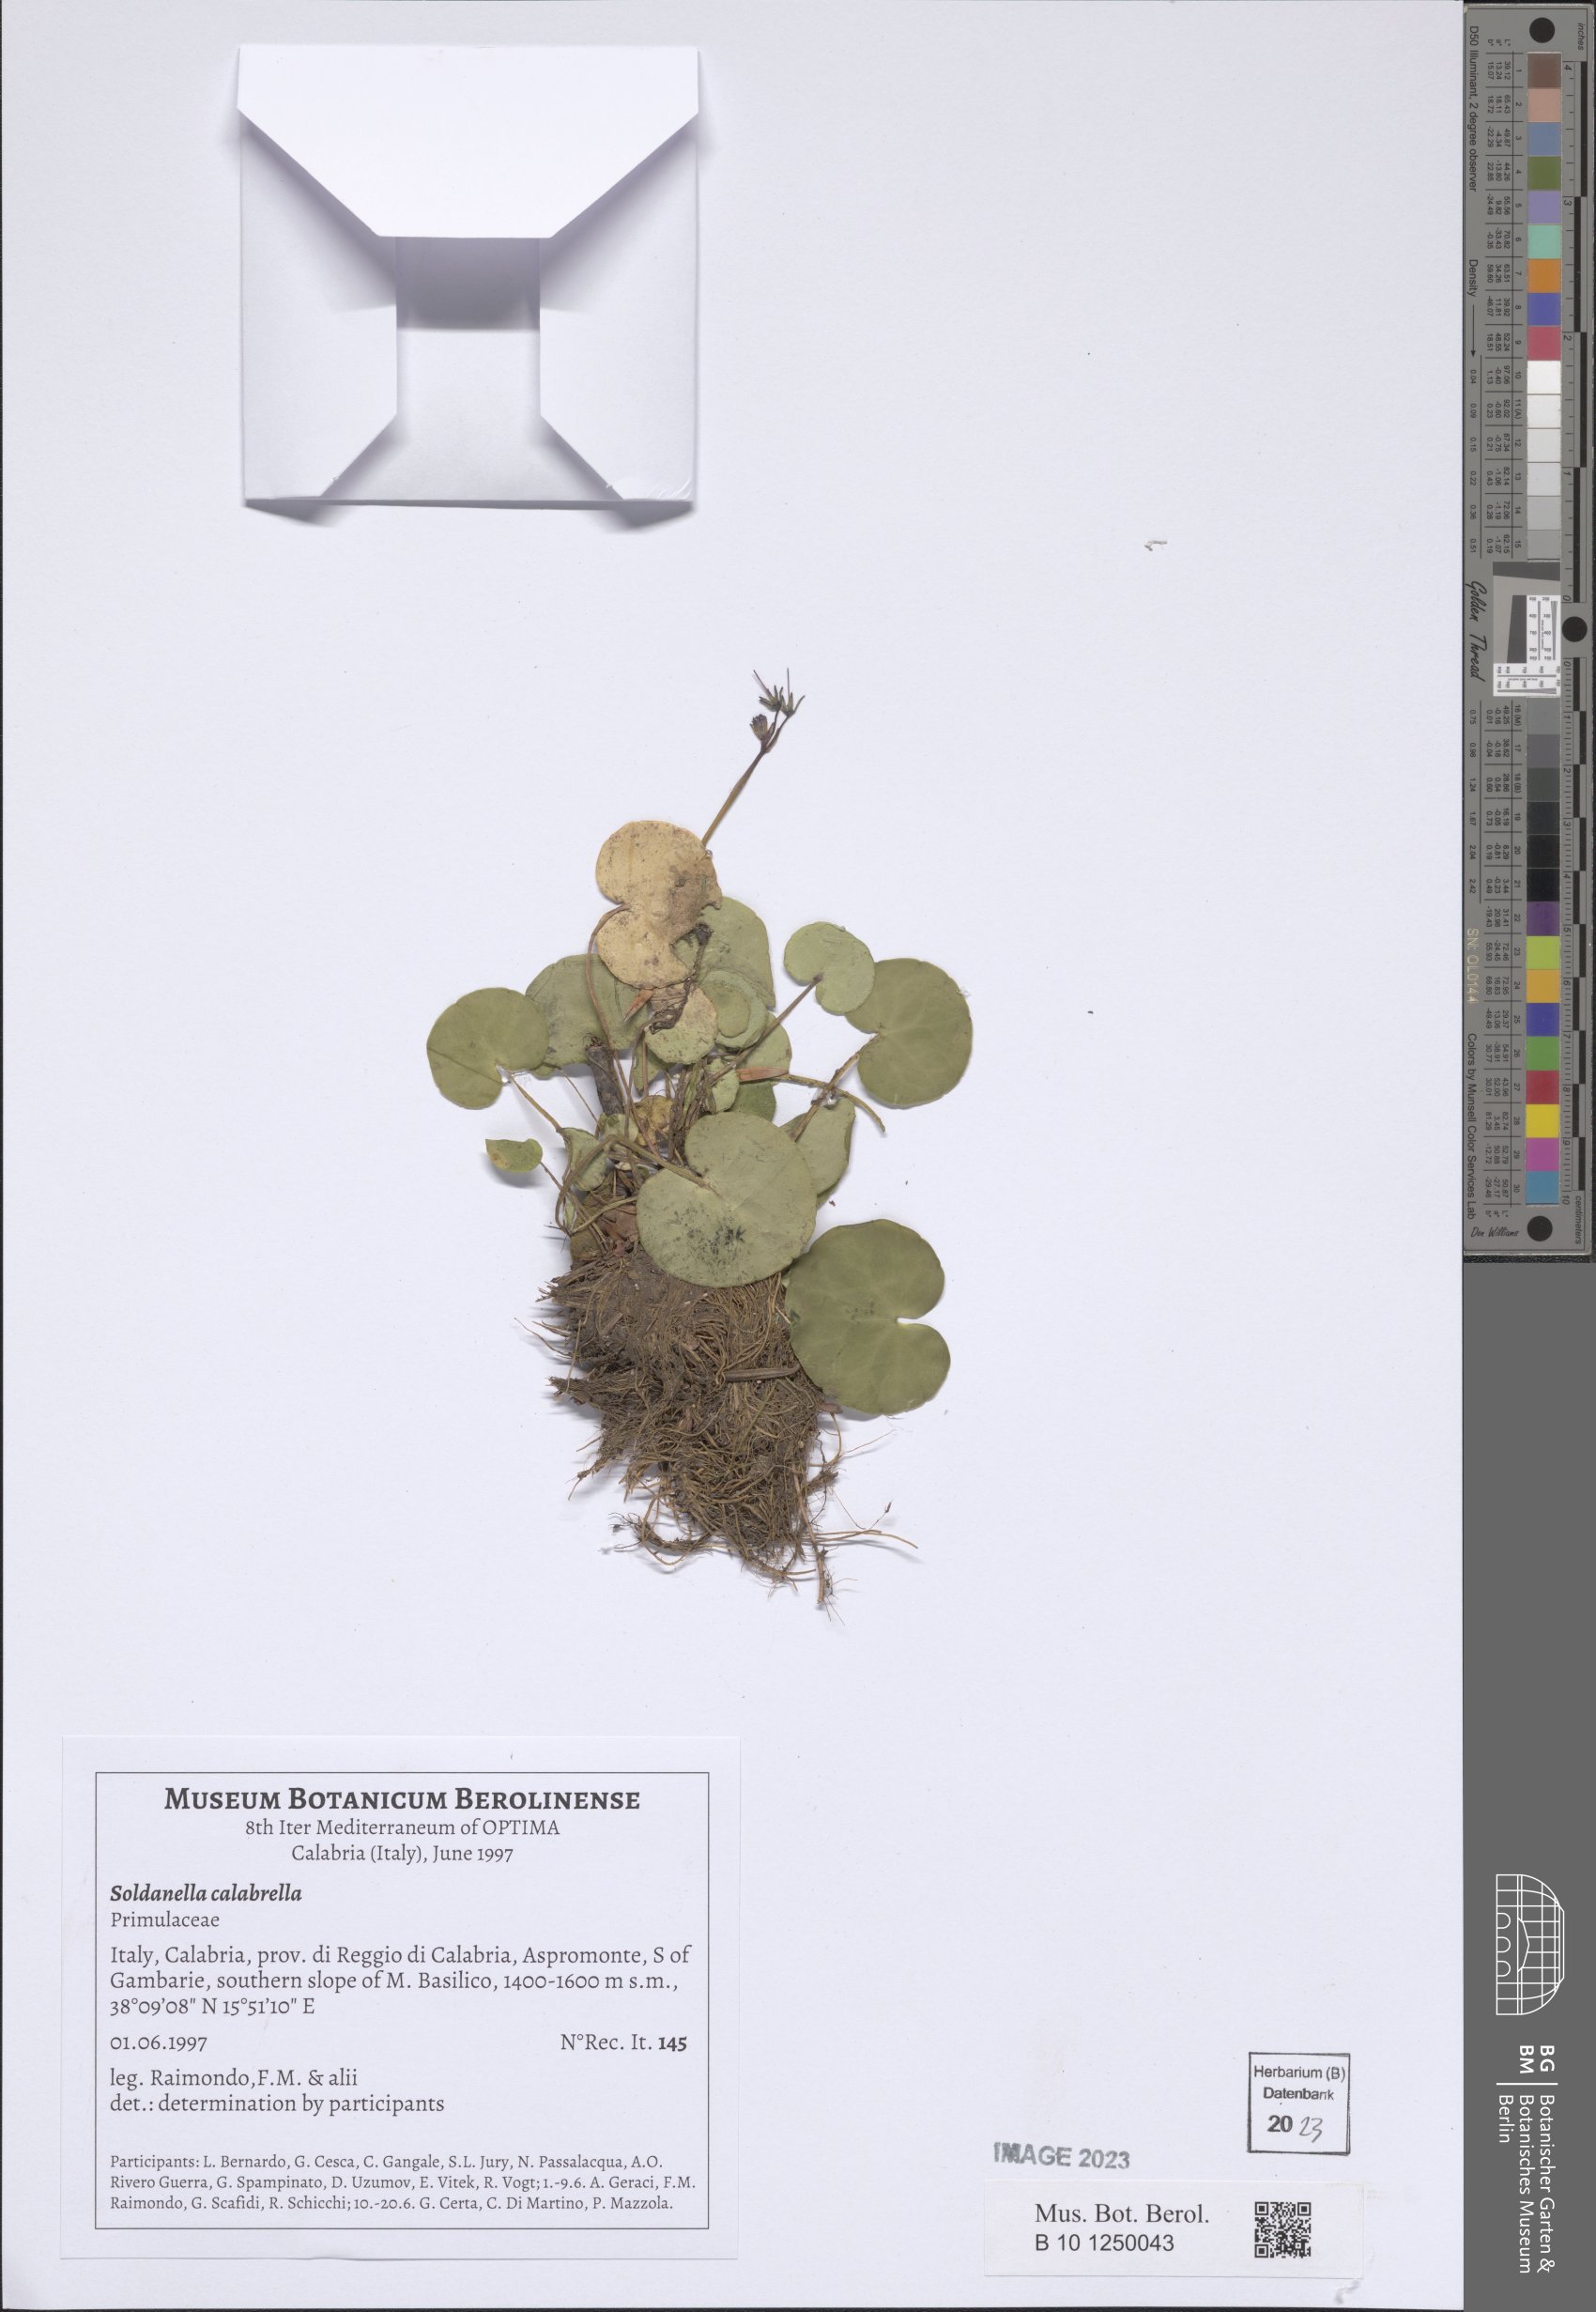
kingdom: Plantae
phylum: Tracheophyta
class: Magnoliopsida
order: Ericales
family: Primulaceae
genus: Soldanella
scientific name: Soldanella calabrella
